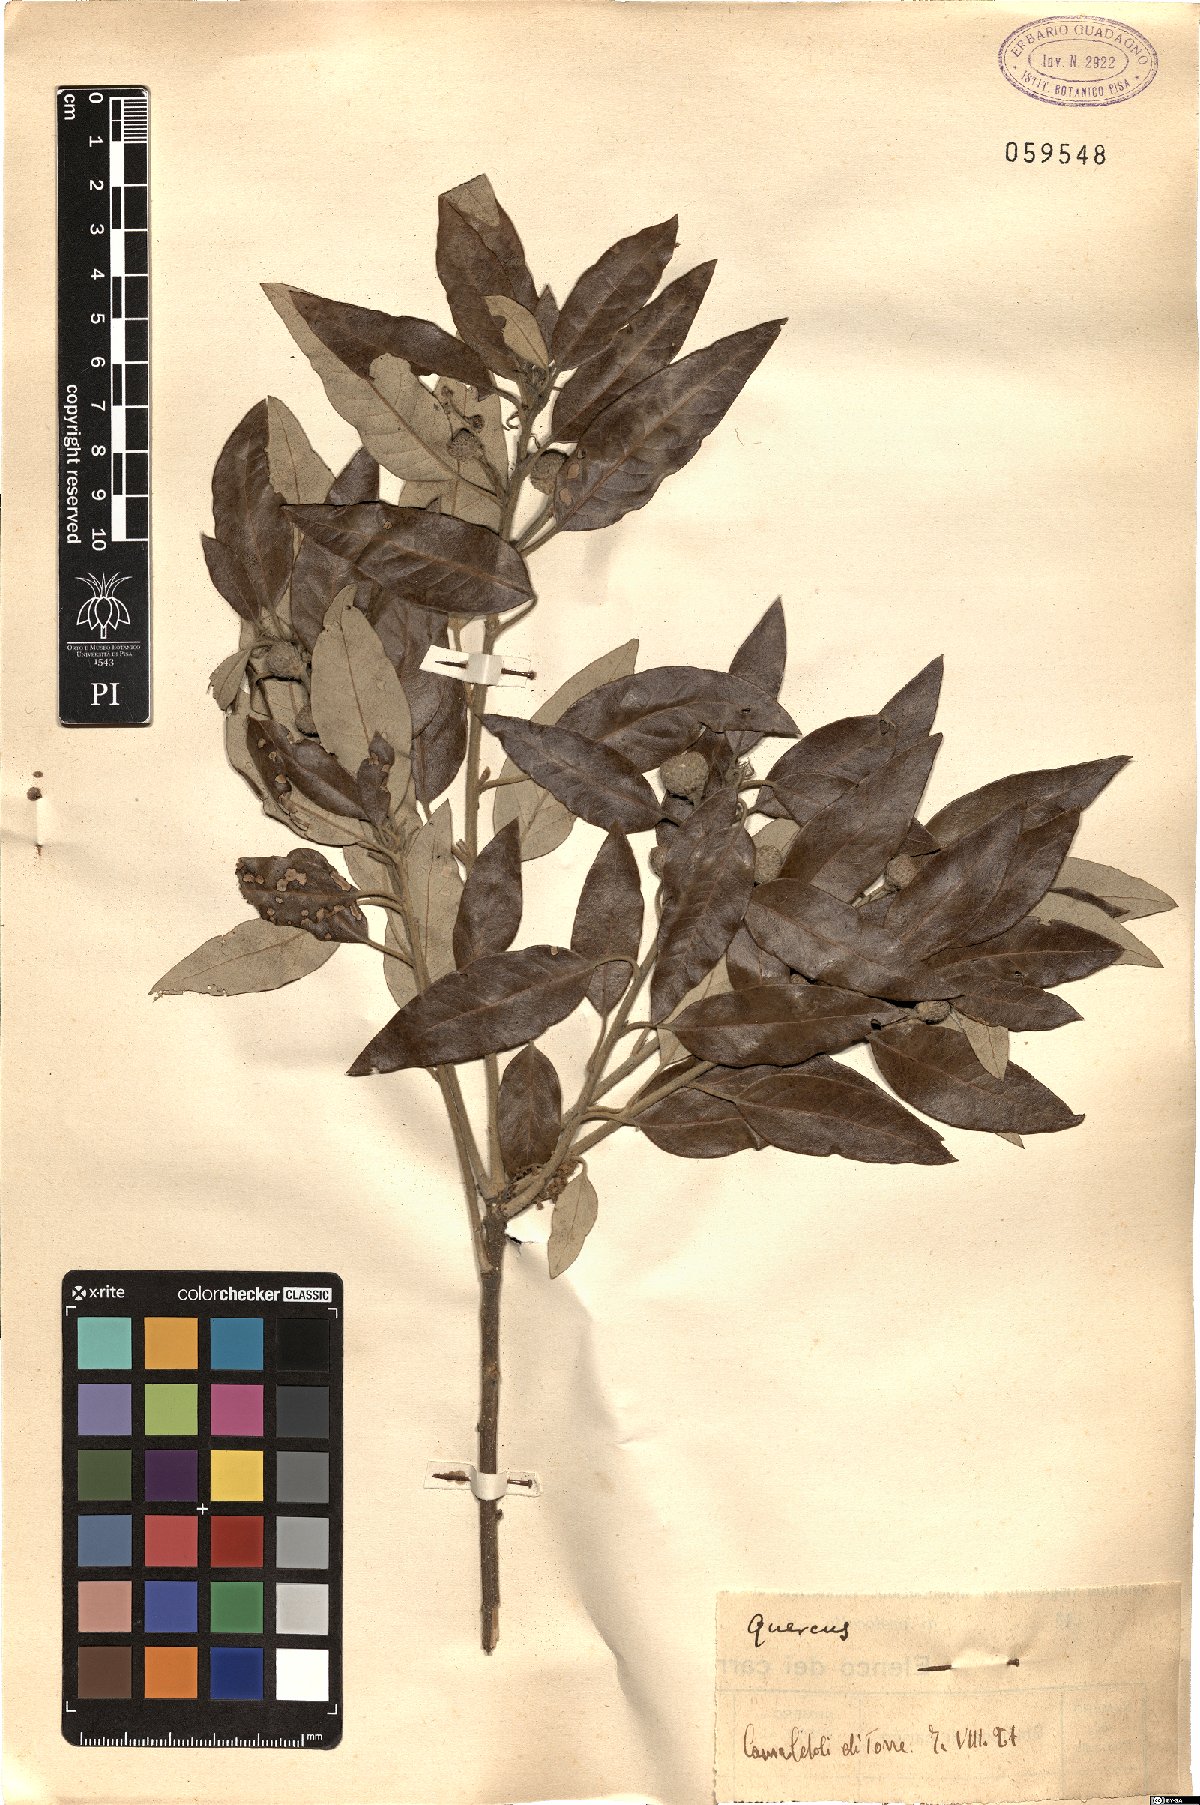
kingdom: Plantae
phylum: Tracheophyta
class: Magnoliopsida
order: Fagales
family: Fagaceae
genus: Quercus
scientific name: Quercus ilex
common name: Evergreen oak
